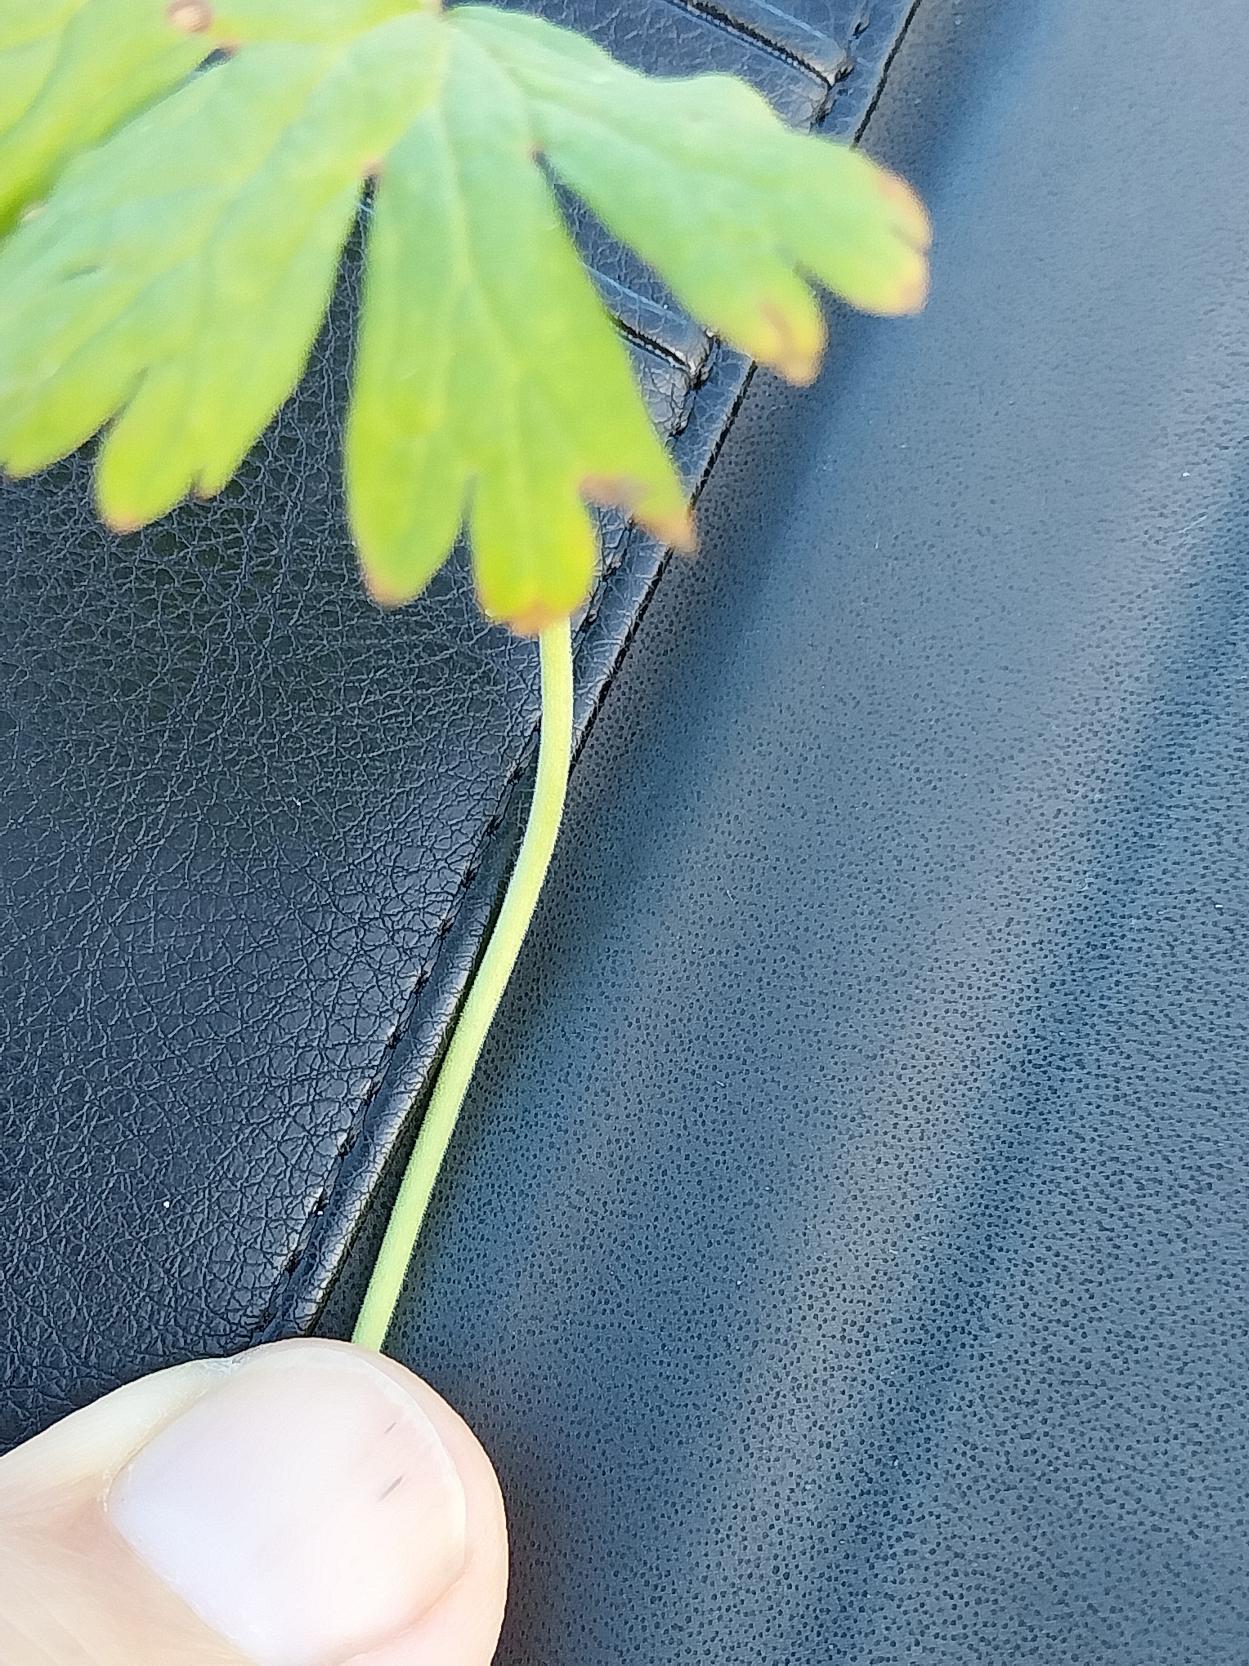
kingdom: Plantae
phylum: Tracheophyta
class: Magnoliopsida
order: Geraniales
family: Geraniaceae
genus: Geranium
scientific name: Geranium pusillum
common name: Liden storkenæb
